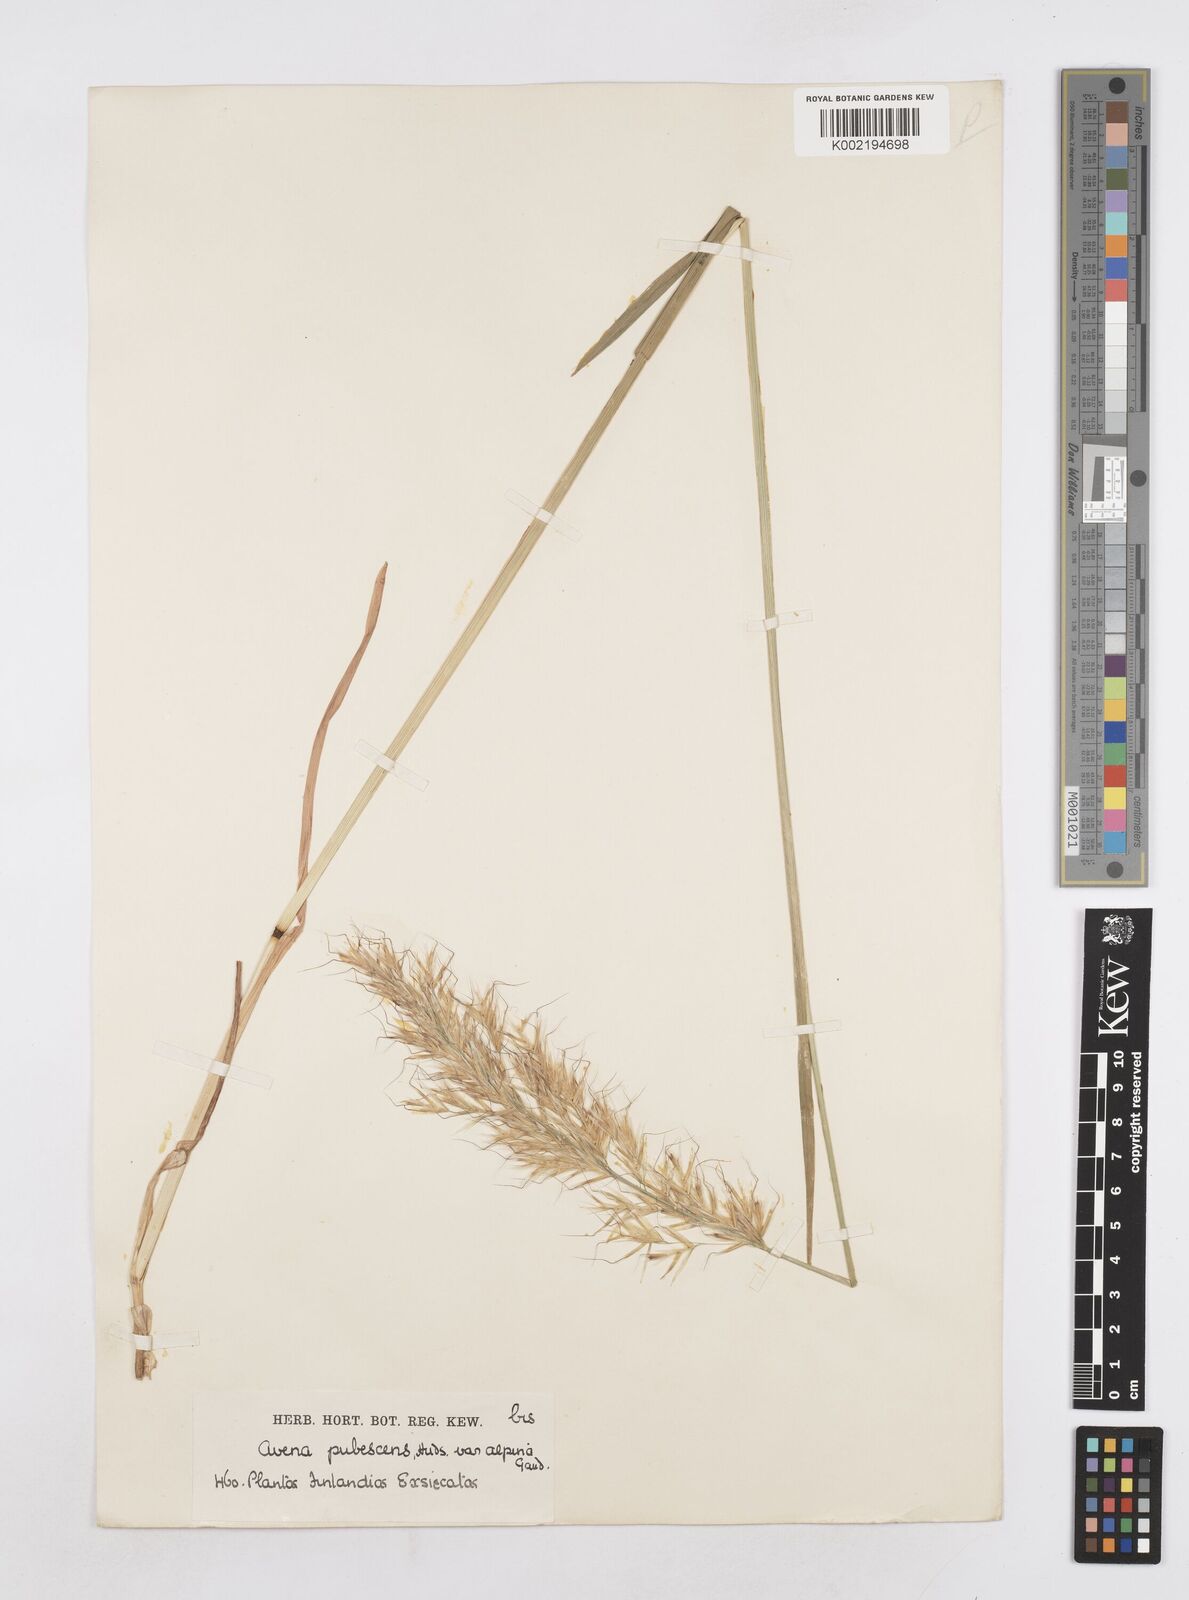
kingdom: Plantae
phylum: Tracheophyta
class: Liliopsida
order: Poales
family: Poaceae
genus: Avenula
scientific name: Avenula pubescens
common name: Downy alpine oatgrass
